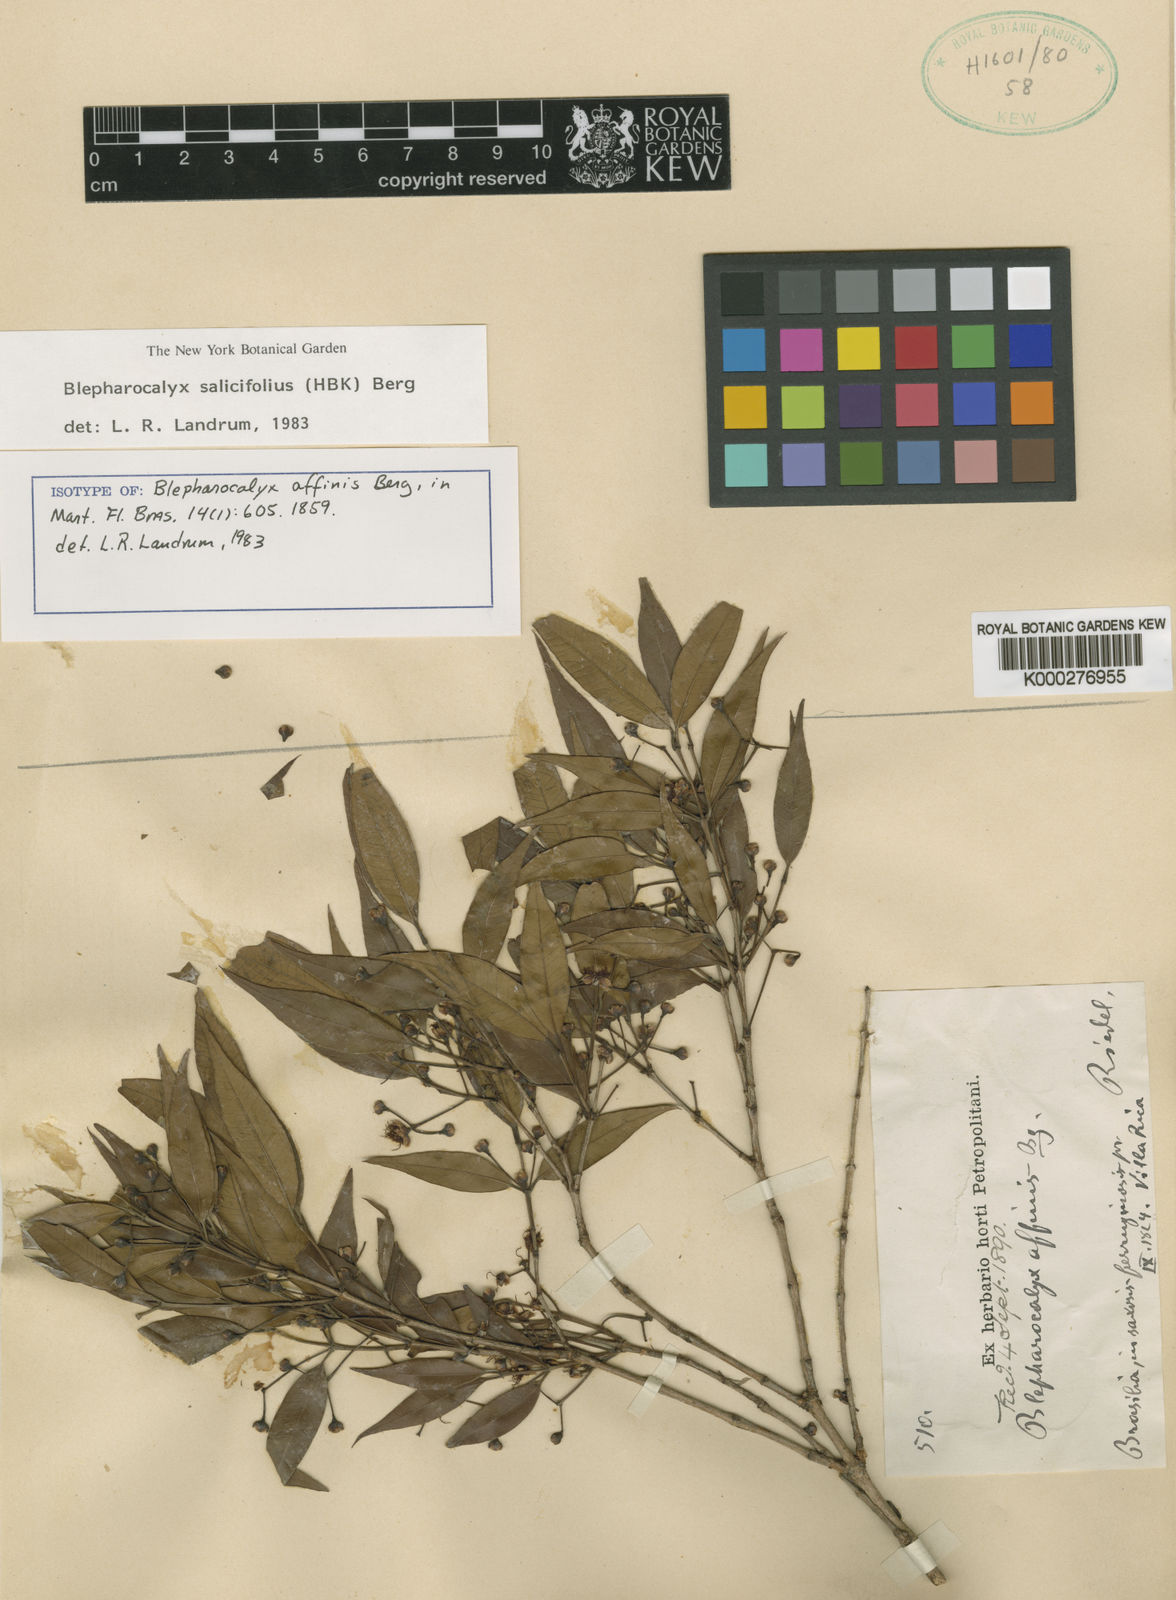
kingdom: Plantae
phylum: Tracheophyta
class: Magnoliopsida
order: Myrtales
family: Myrtaceae
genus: Blepharocalyx
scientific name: Blepharocalyx salicifolius
